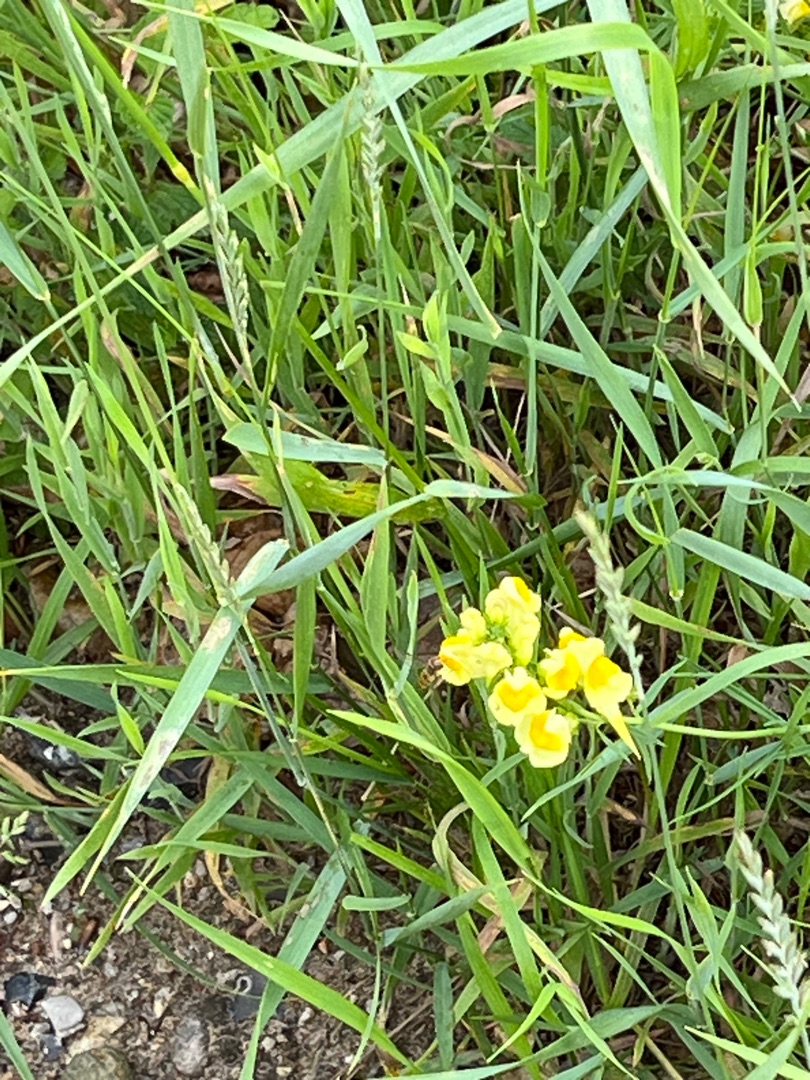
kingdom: Plantae
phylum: Tracheophyta
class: Magnoliopsida
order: Lamiales
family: Plantaginaceae
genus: Linaria
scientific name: Linaria vulgaris
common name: Almindelig torskemund
